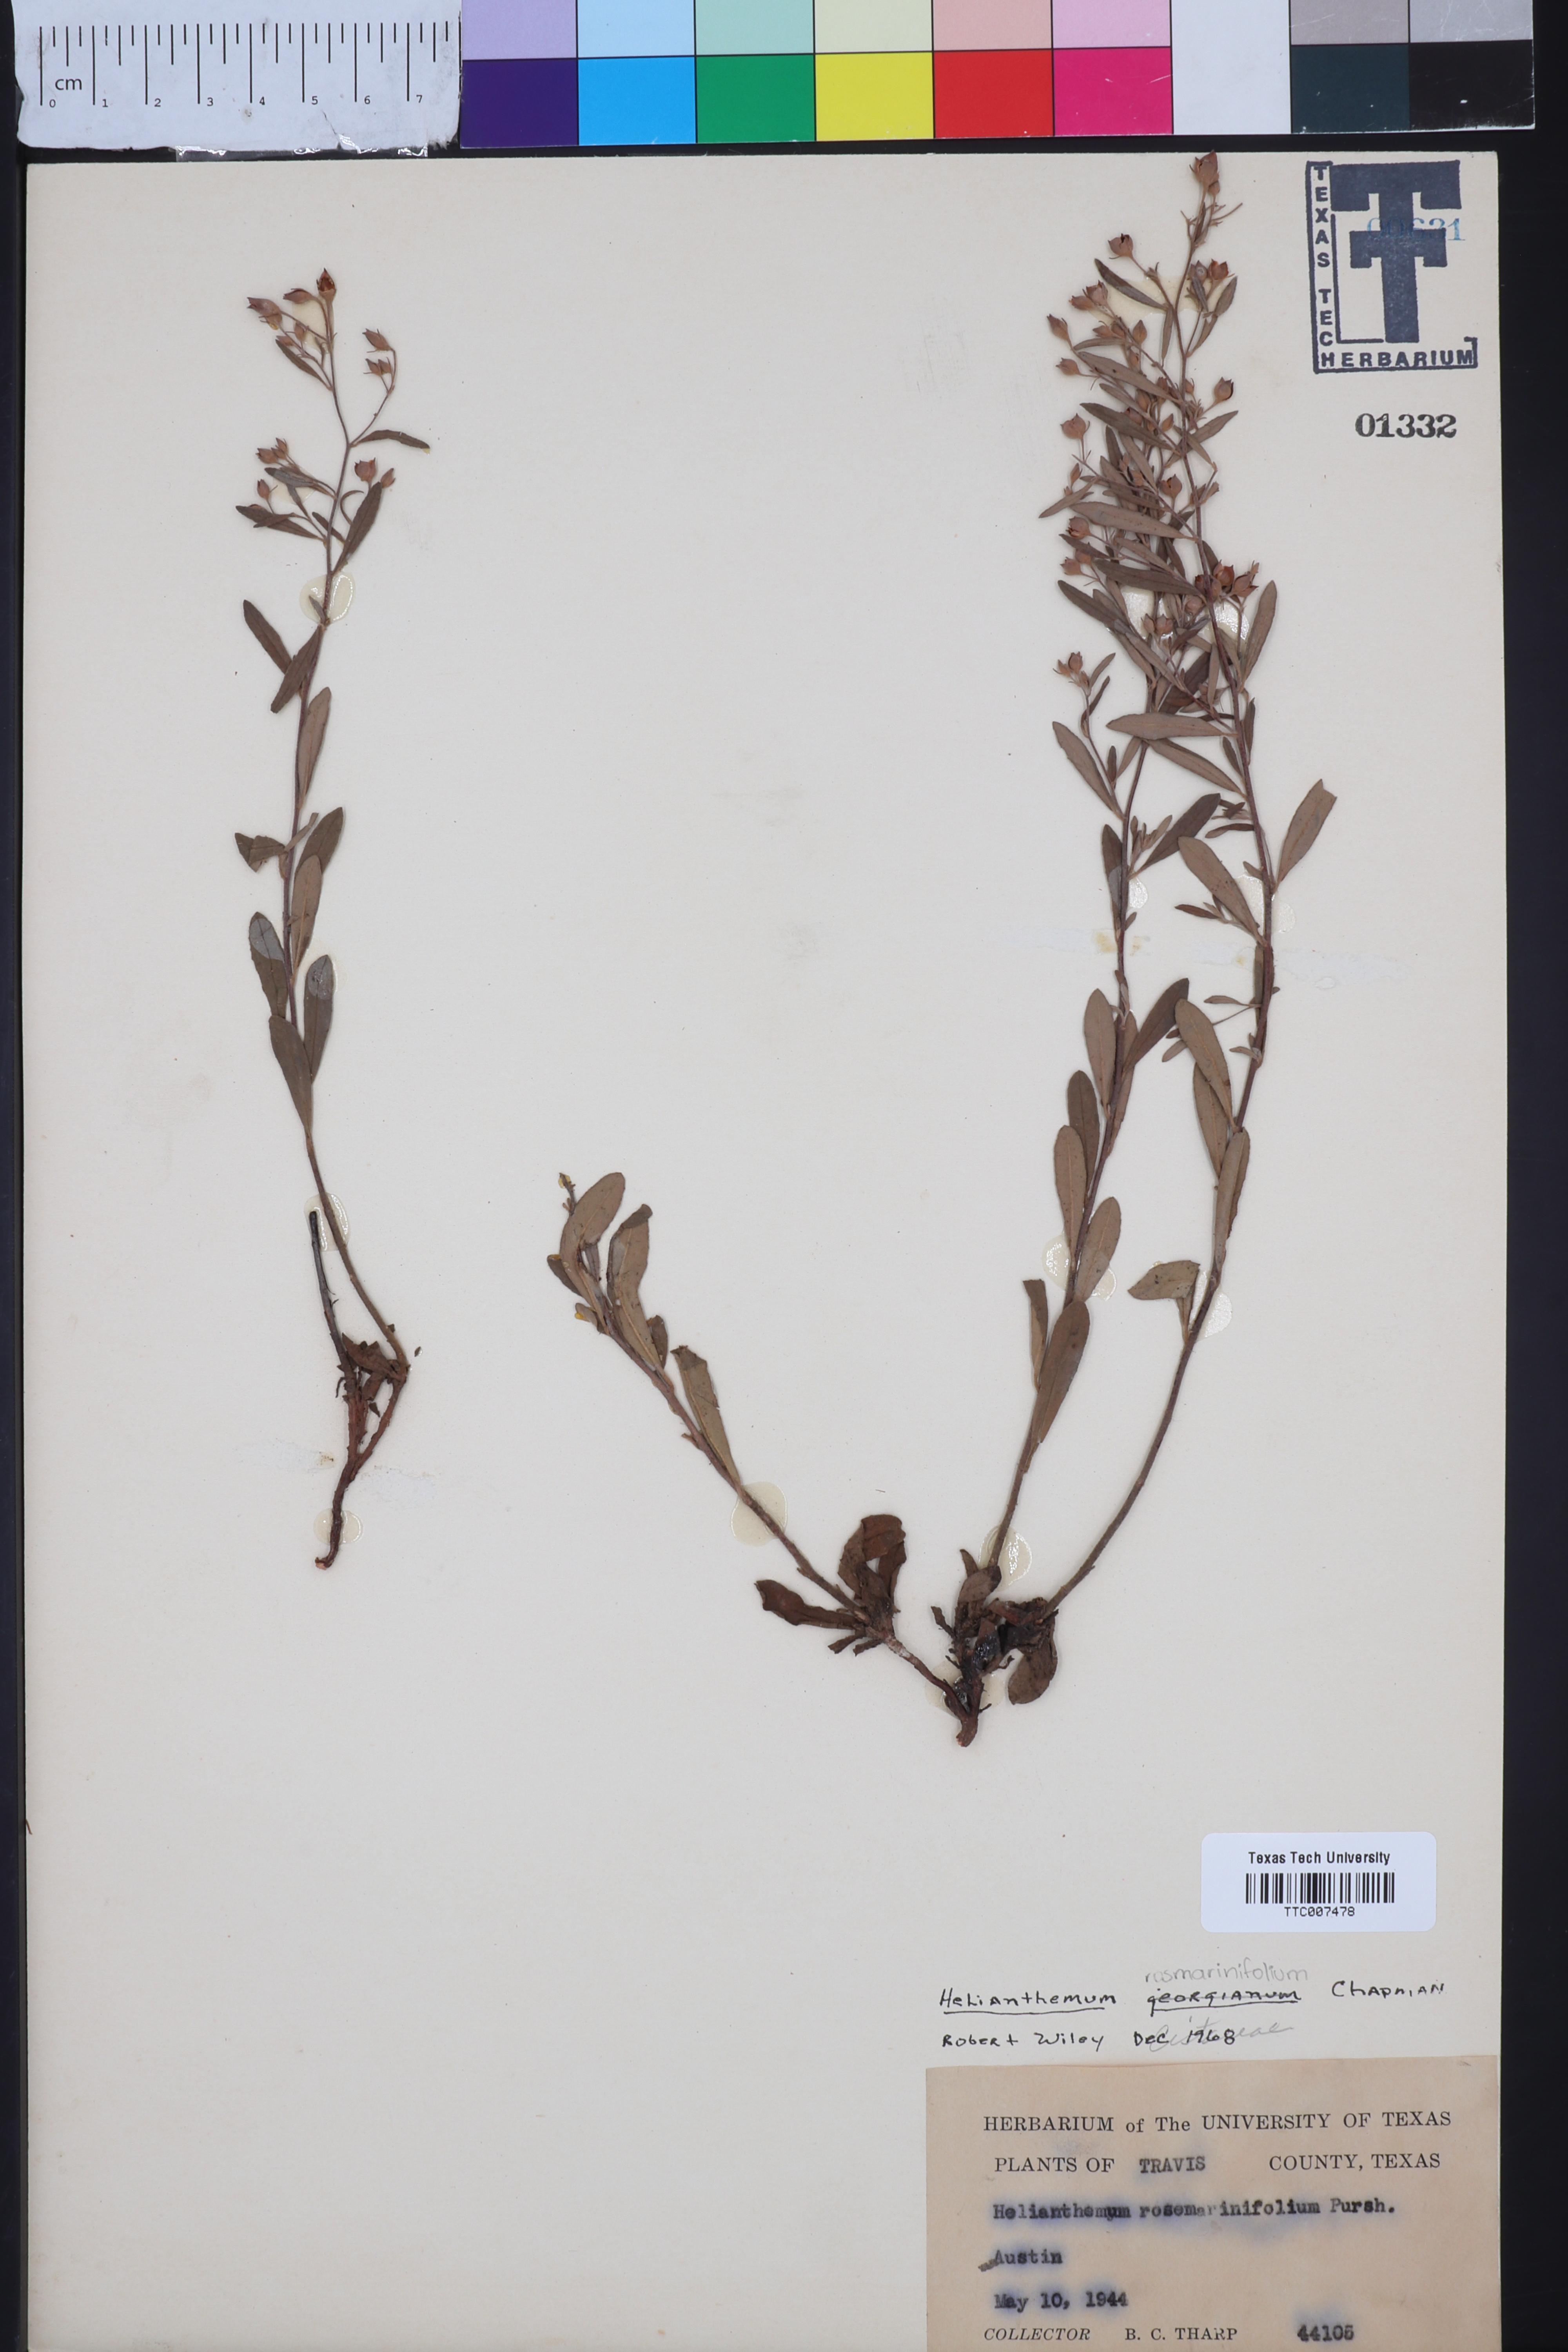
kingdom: Plantae
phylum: Tracheophyta
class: Magnoliopsida
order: Malvales
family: Cistaceae
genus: Crocanthemum
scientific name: Crocanthemum georgianum
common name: Georgia frostweed
